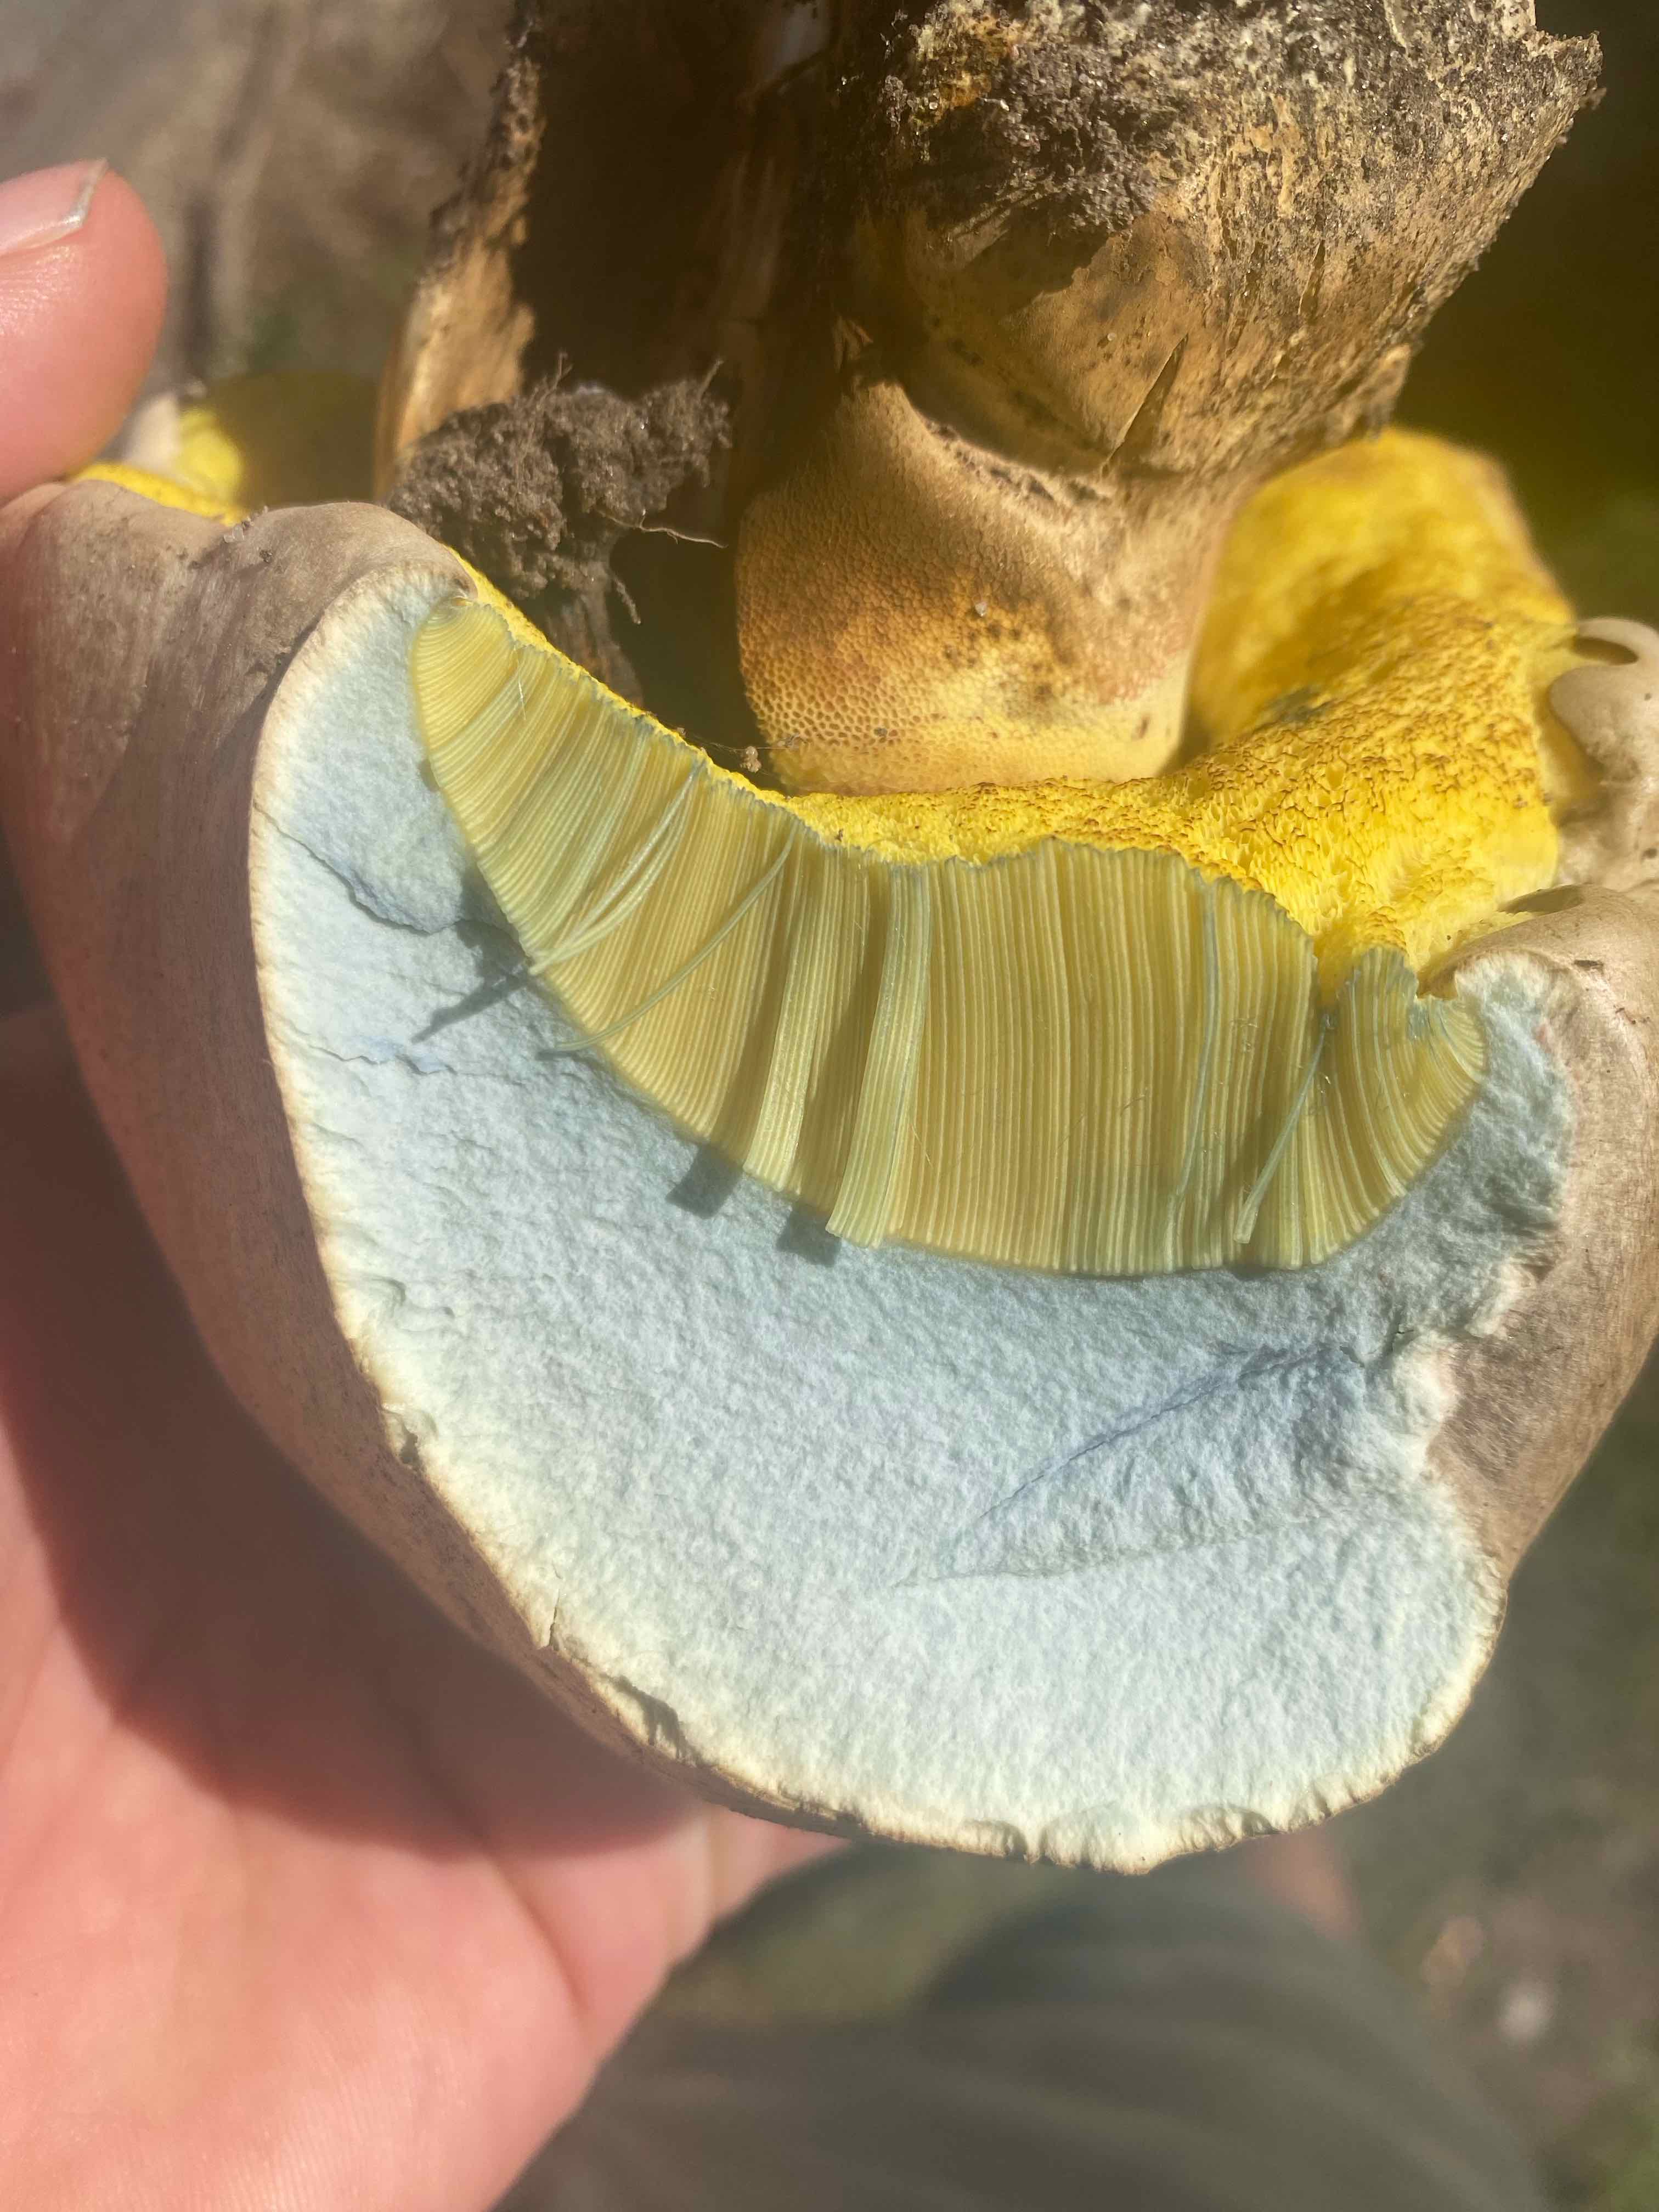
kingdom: Fungi
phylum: Basidiomycota
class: Agaricomycetes
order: Boletales
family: Boletaceae
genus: Caloboletus
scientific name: Caloboletus radicans
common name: rod-rørhat
